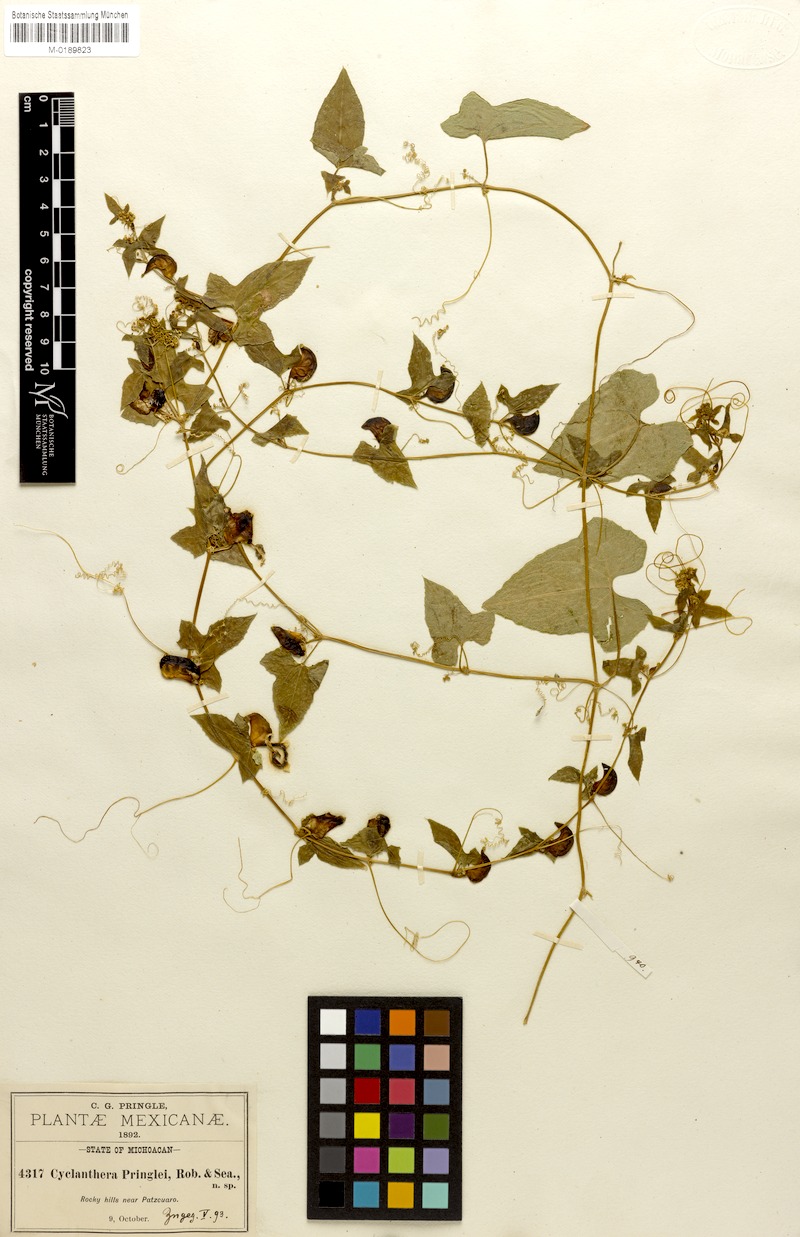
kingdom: Plantae
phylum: Tracheophyta
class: Magnoliopsida
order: Cucurbitales
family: Cucurbitaceae
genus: Cyclanthera
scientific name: Cyclanthera hastata
